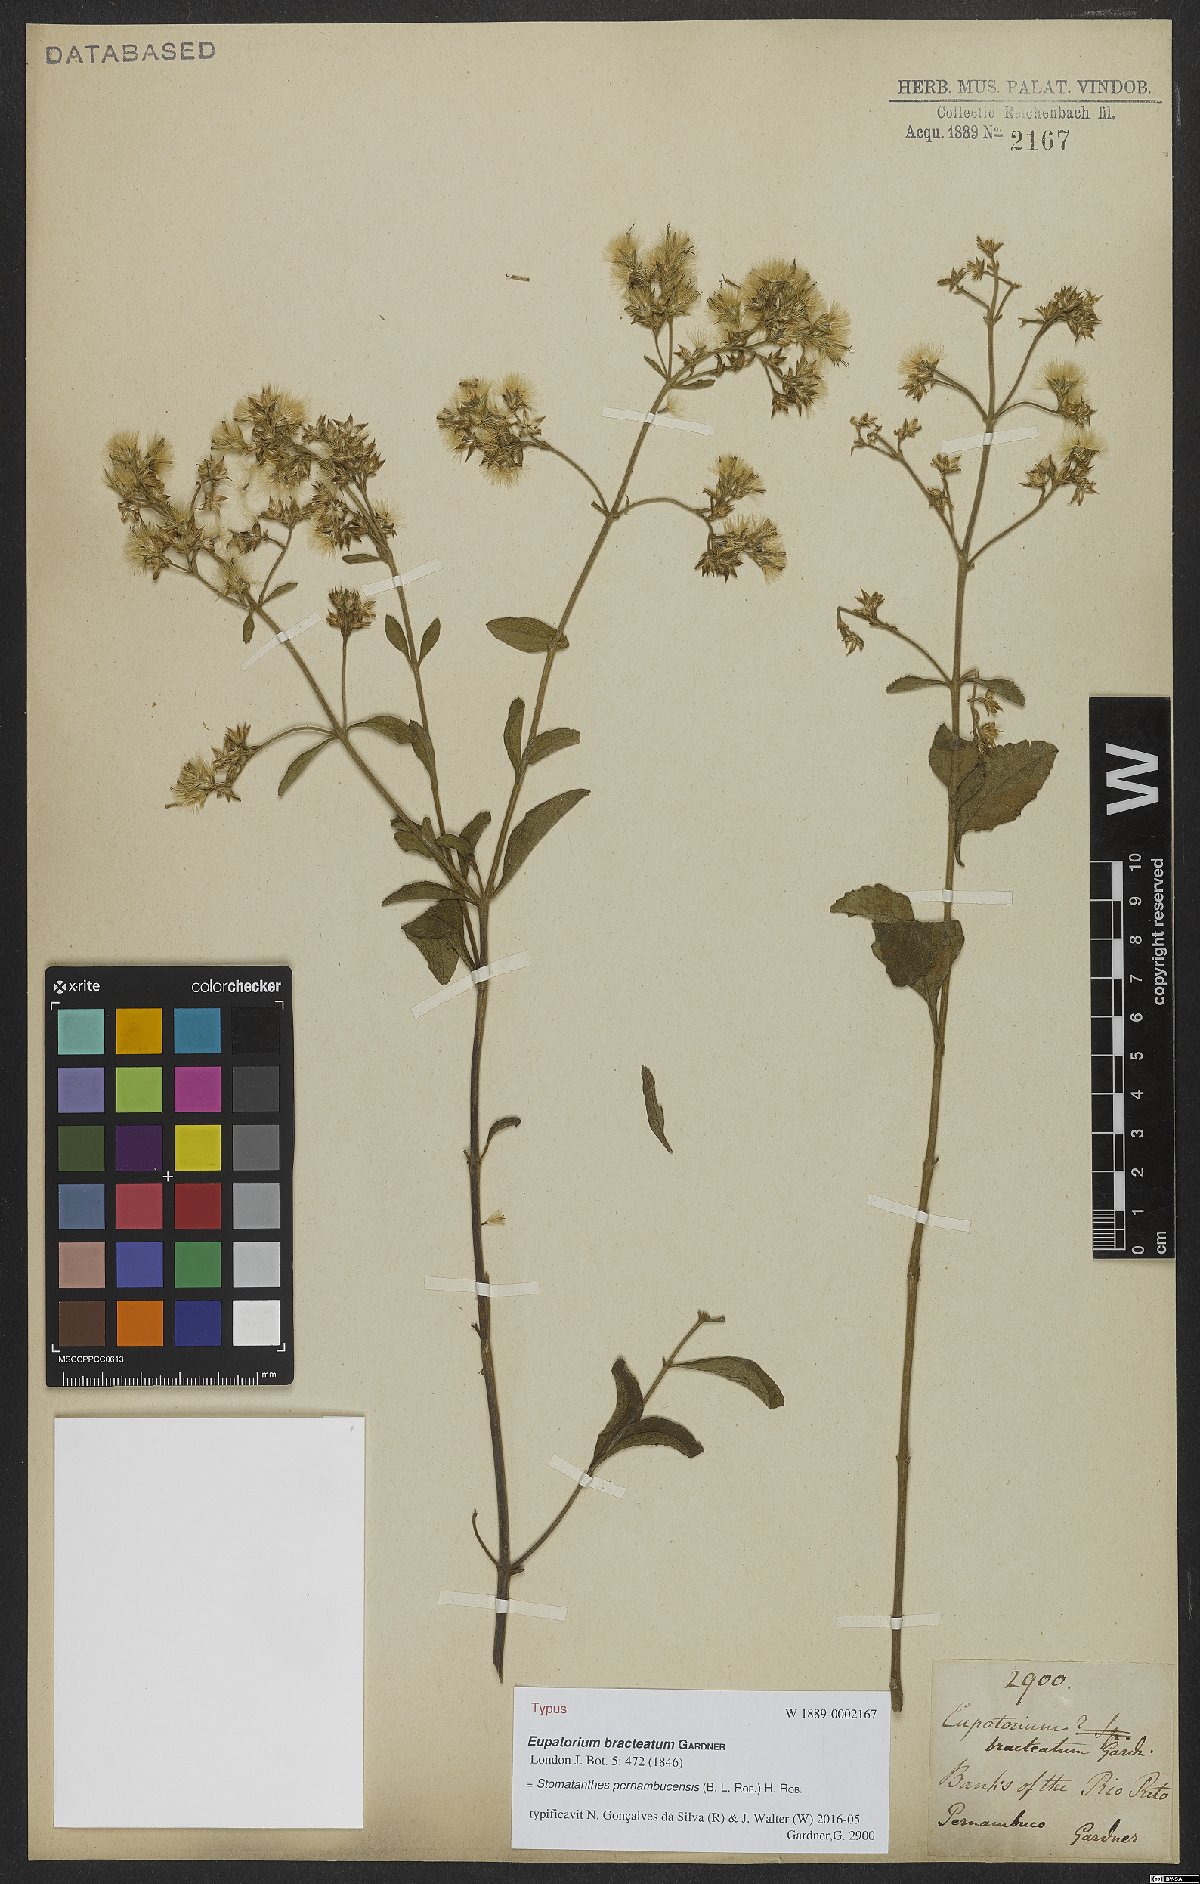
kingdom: Plantae
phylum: Tracheophyta
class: Magnoliopsida
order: Asterales
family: Asteraceae
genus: Stomatanthes
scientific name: Stomatanthes pernambucensis
